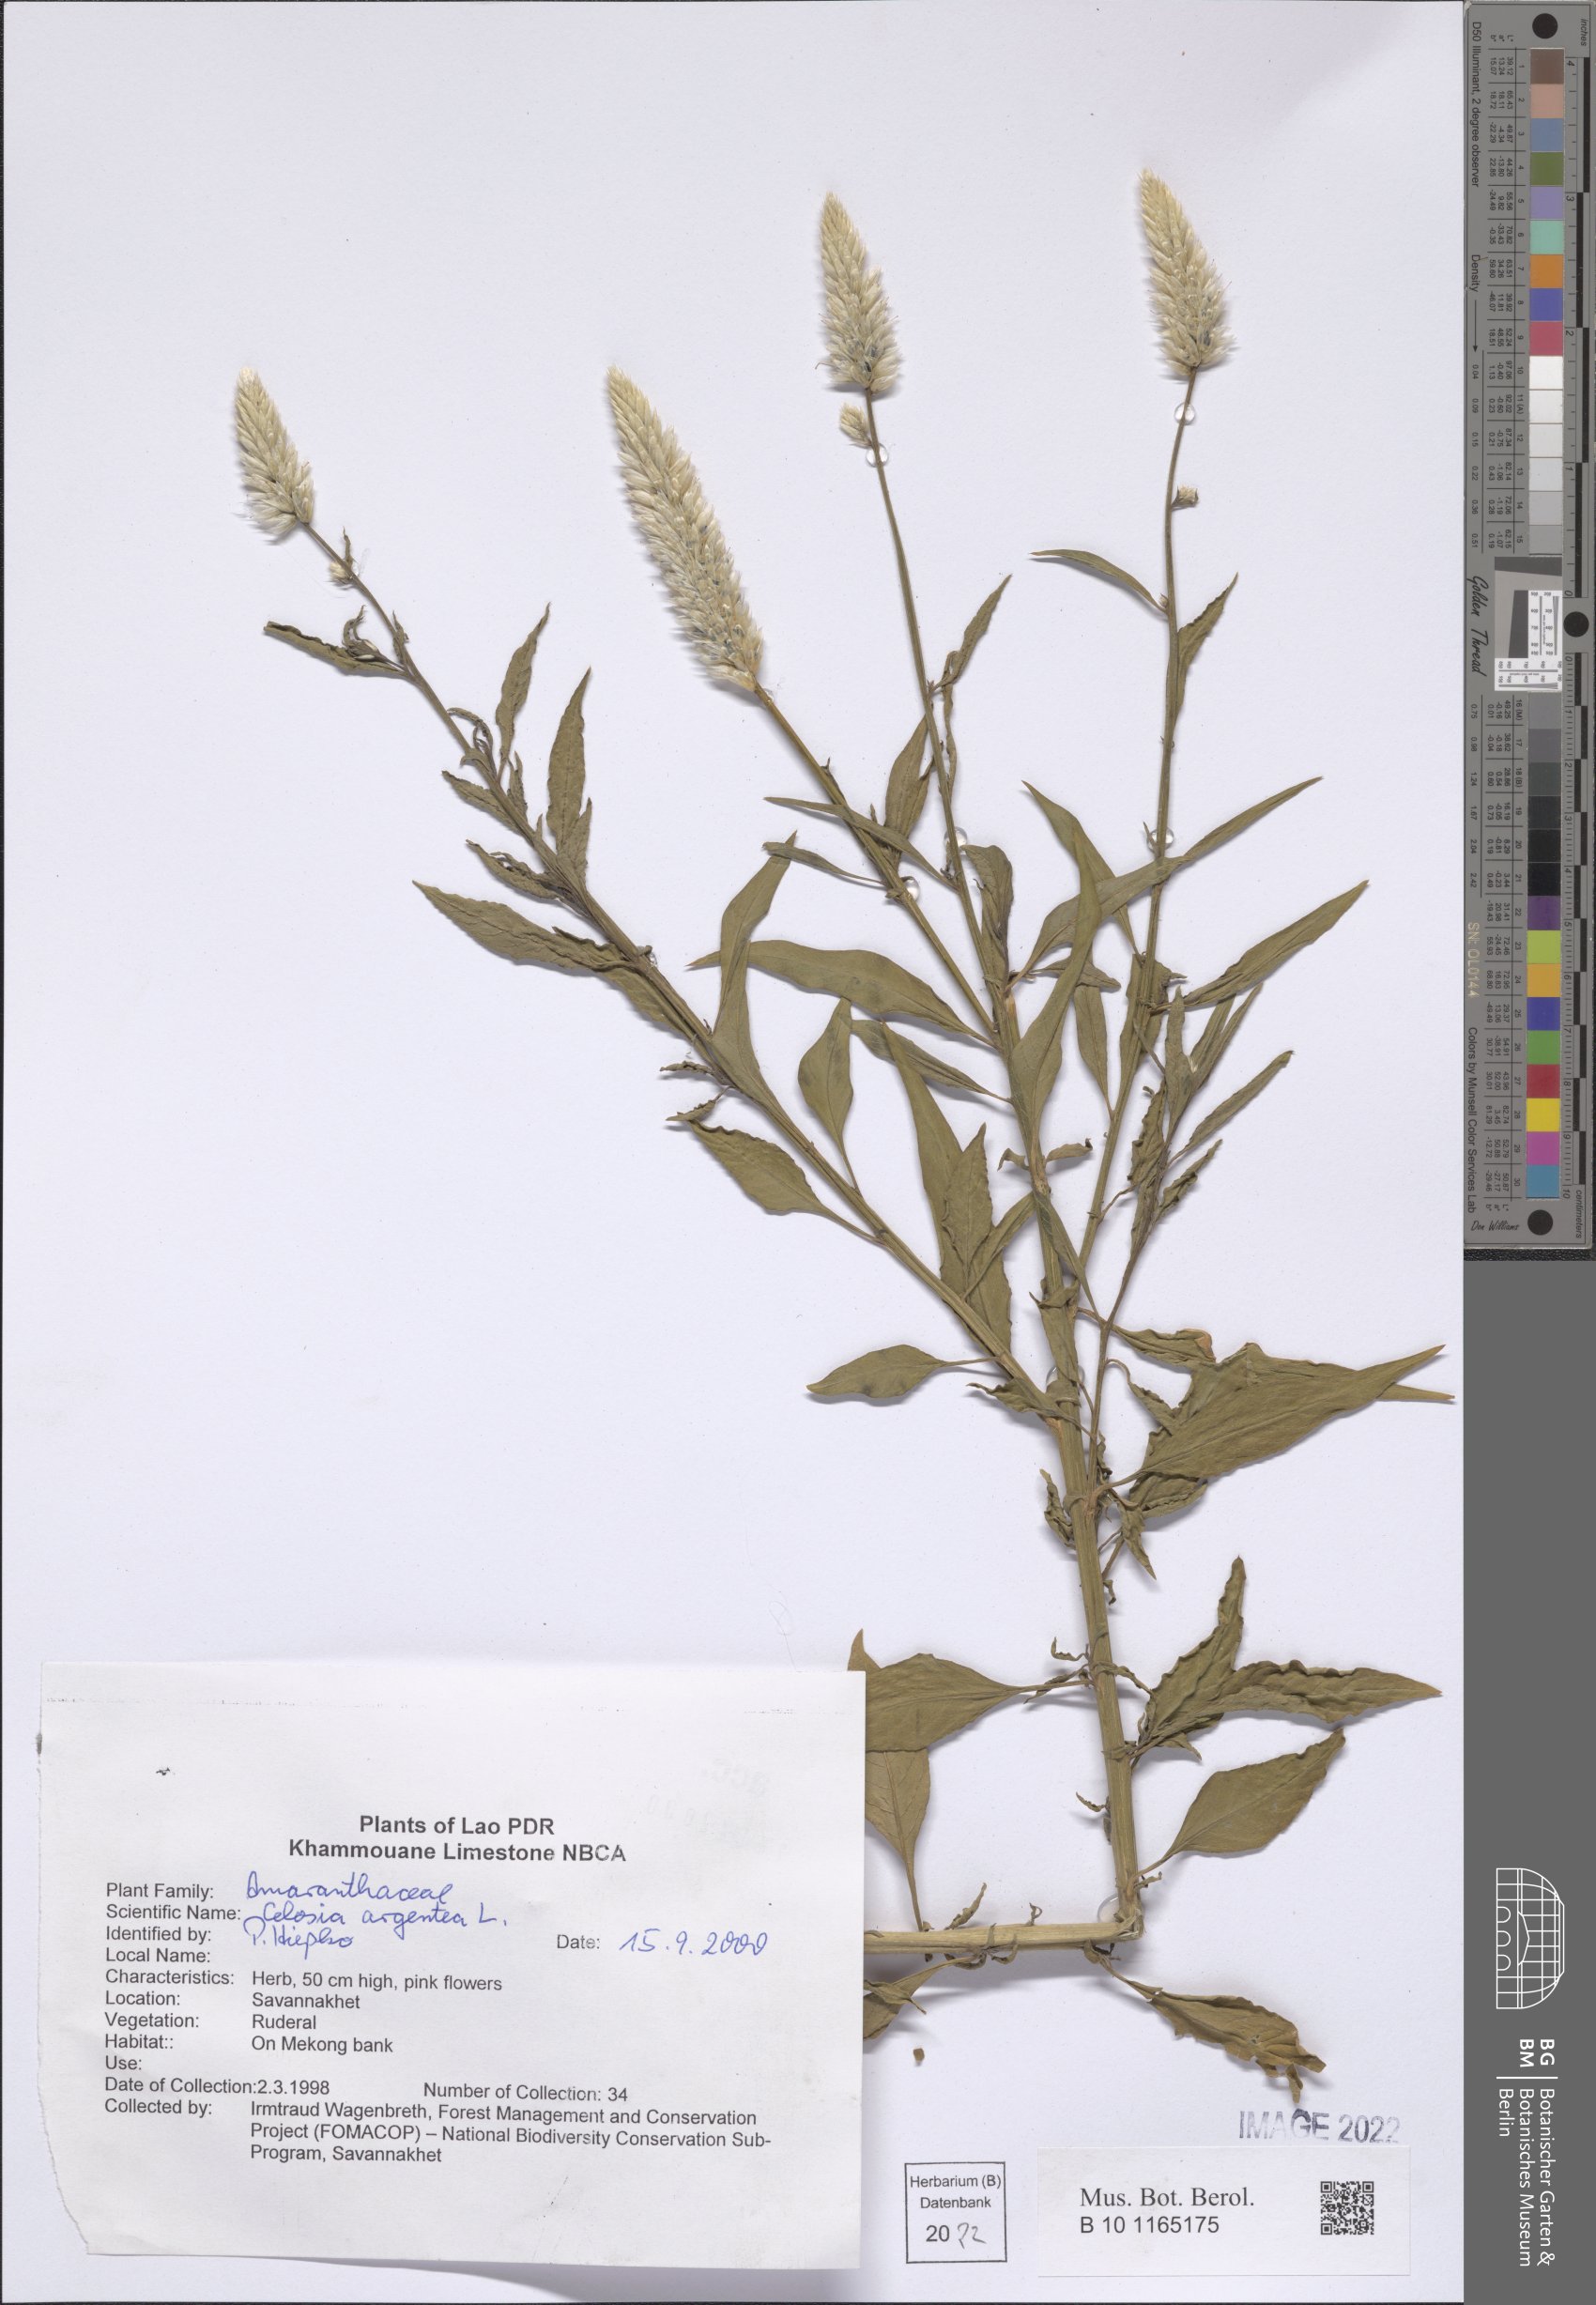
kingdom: Plantae
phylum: Tracheophyta
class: Magnoliopsida
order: Caryophyllales
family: Amaranthaceae
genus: Celosia
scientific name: Celosia argentea
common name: Feather cockscomb
